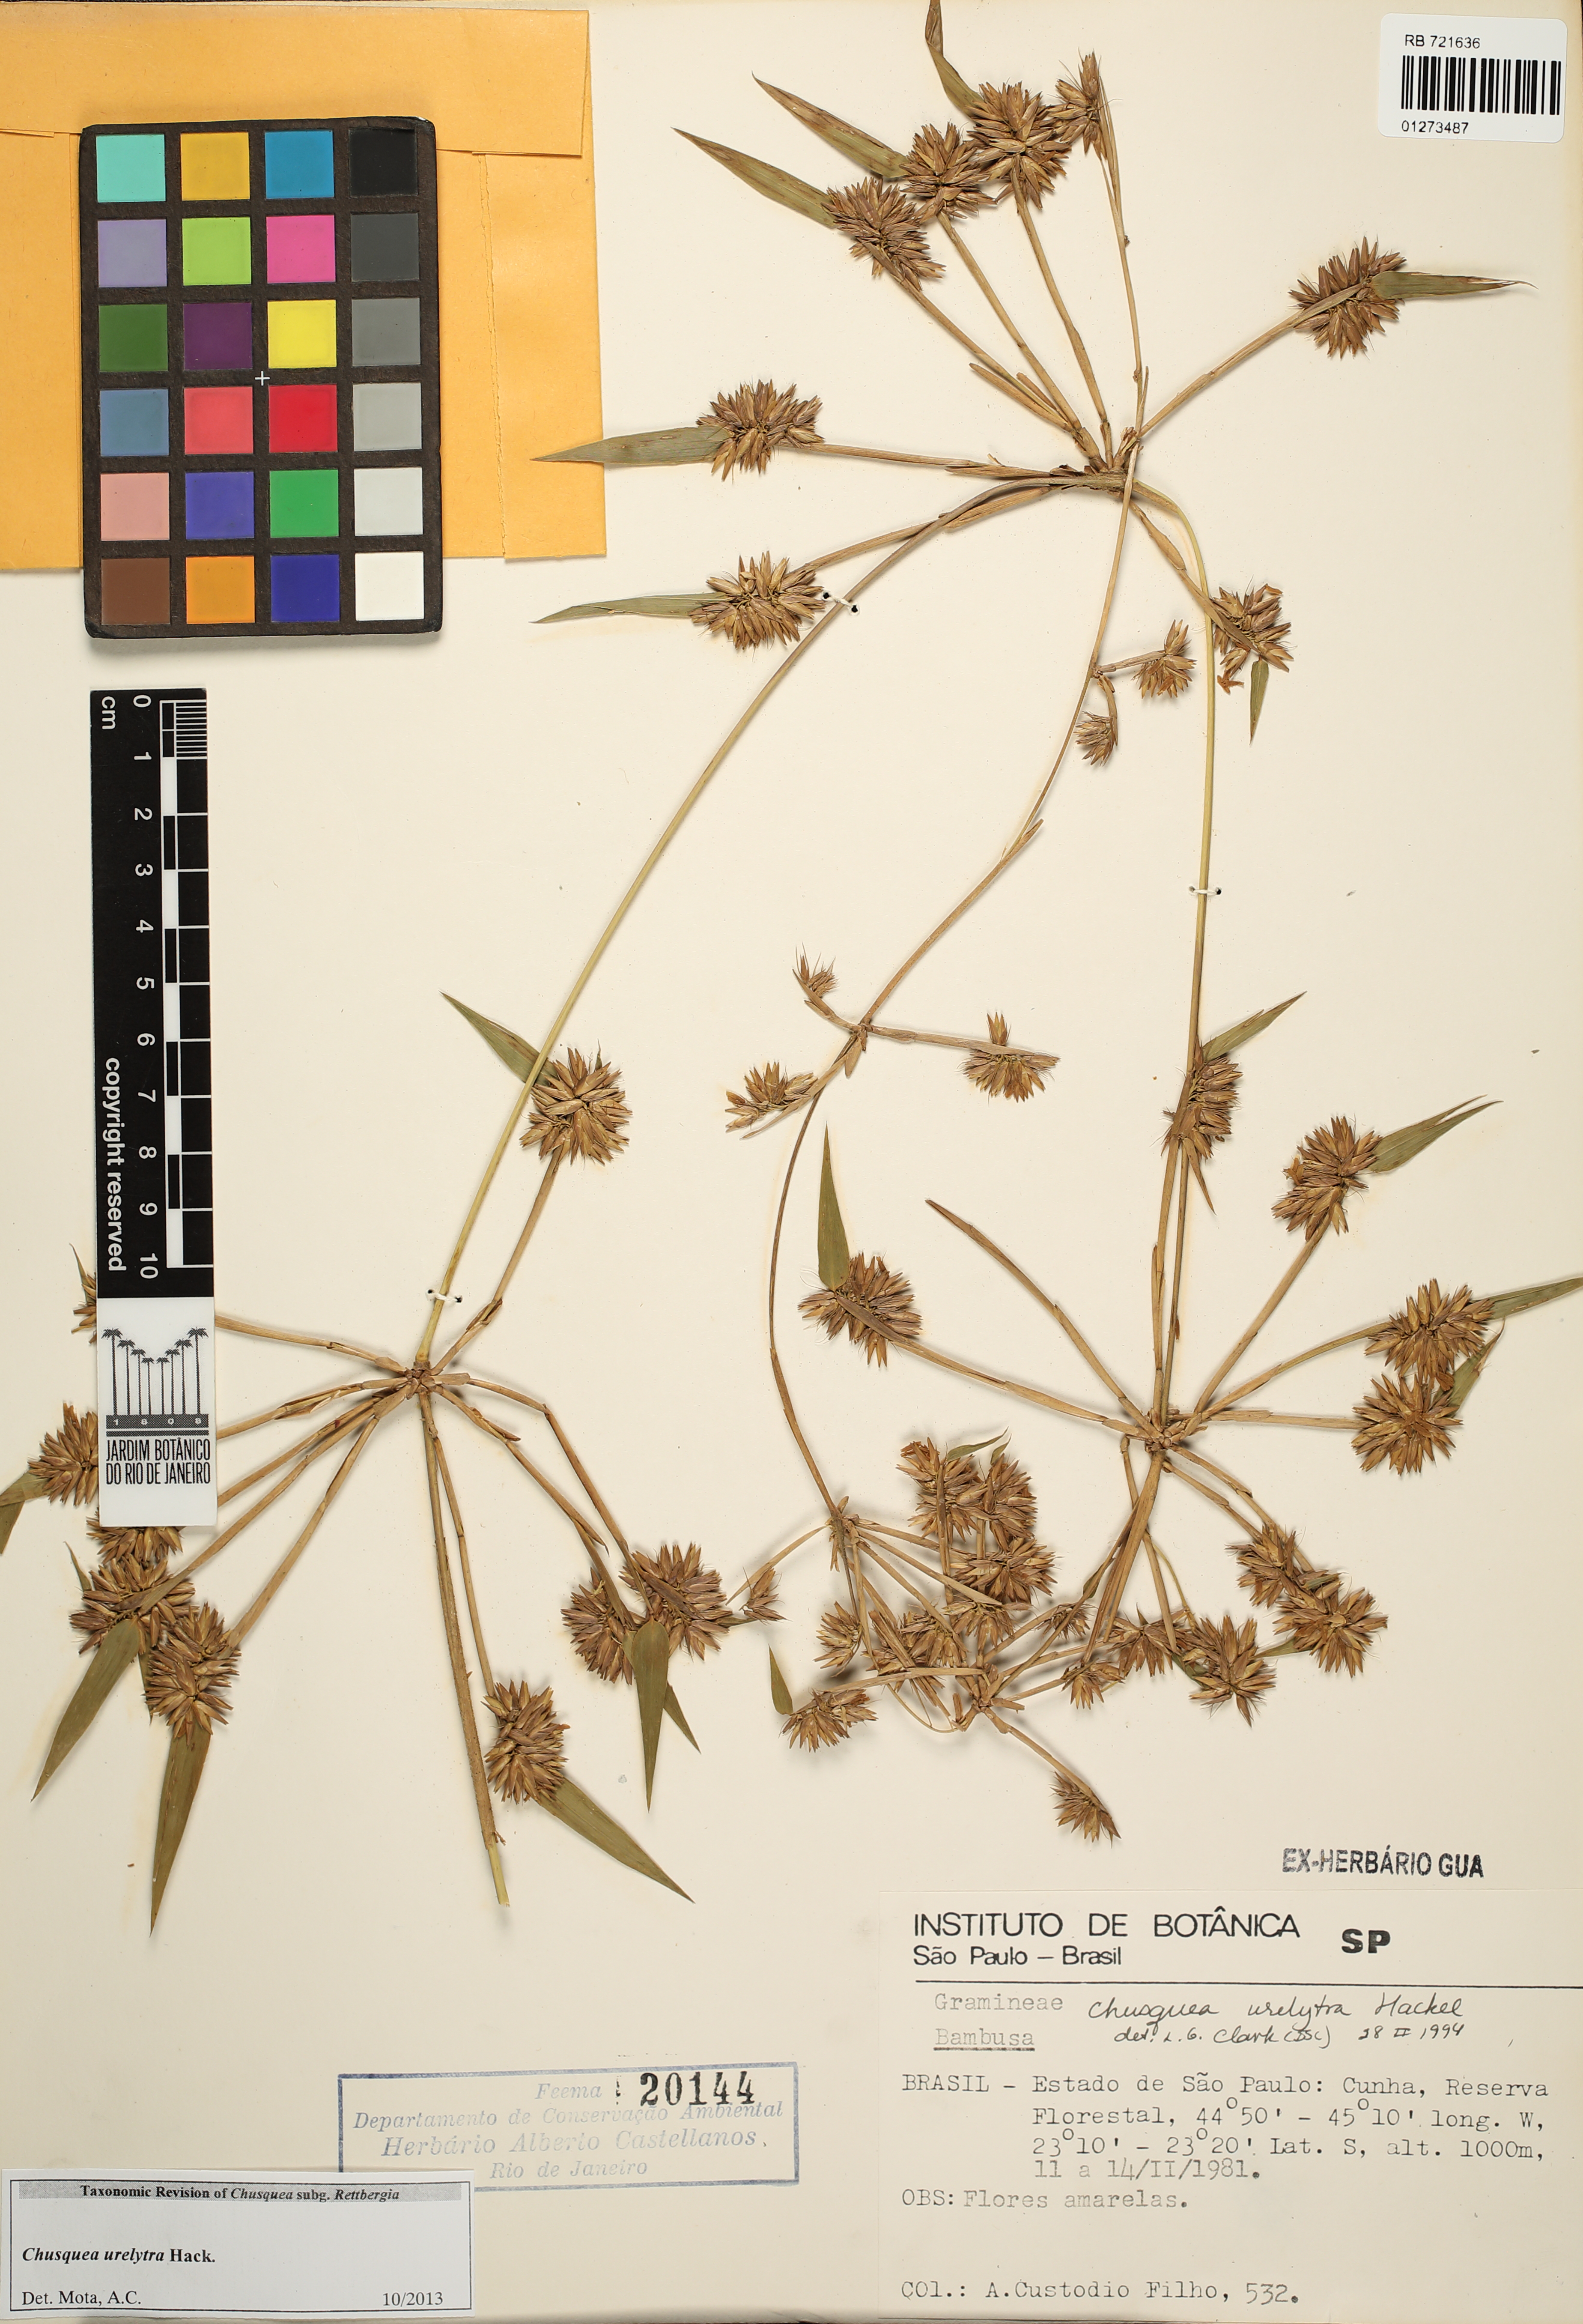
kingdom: Plantae
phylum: Tracheophyta
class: Liliopsida
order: Poales
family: Poaceae
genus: Chusquea
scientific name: Chusquea urelytra
